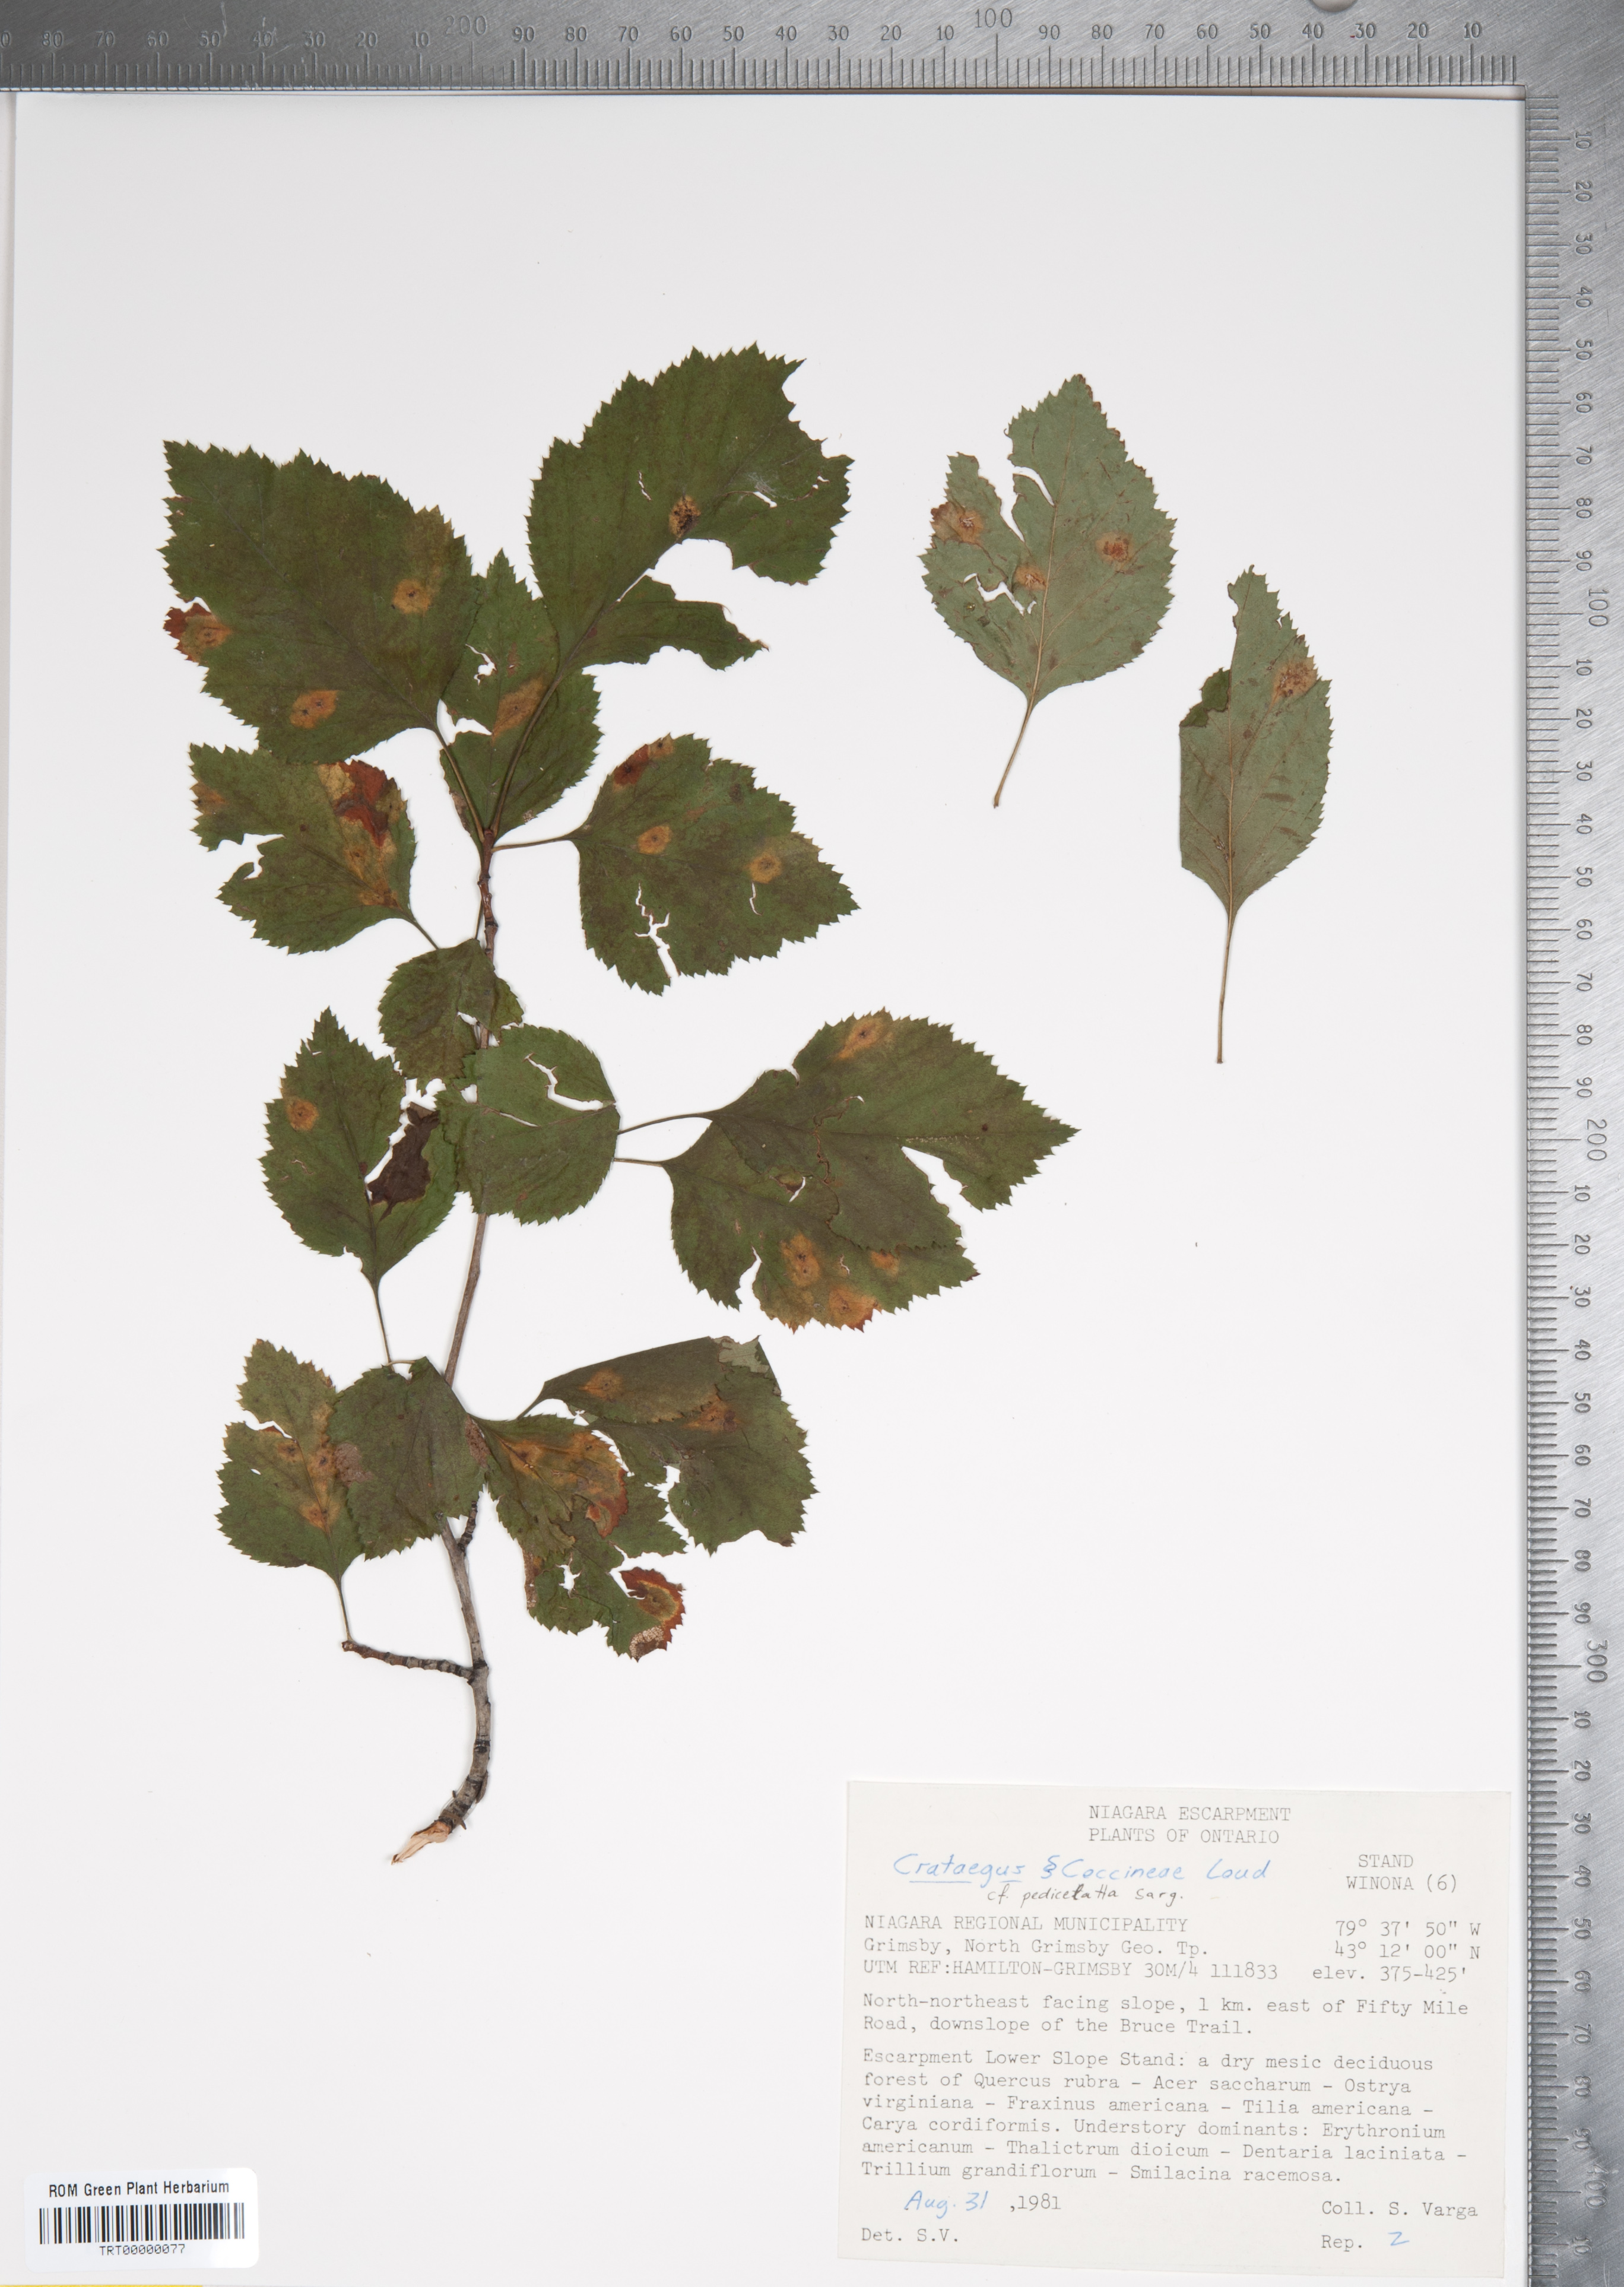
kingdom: Plantae
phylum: Tracheophyta
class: Magnoliopsida
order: Rosales
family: Rosaceae
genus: Crataegus
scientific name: Crataegus coccinea
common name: Scarlet hawthorn
